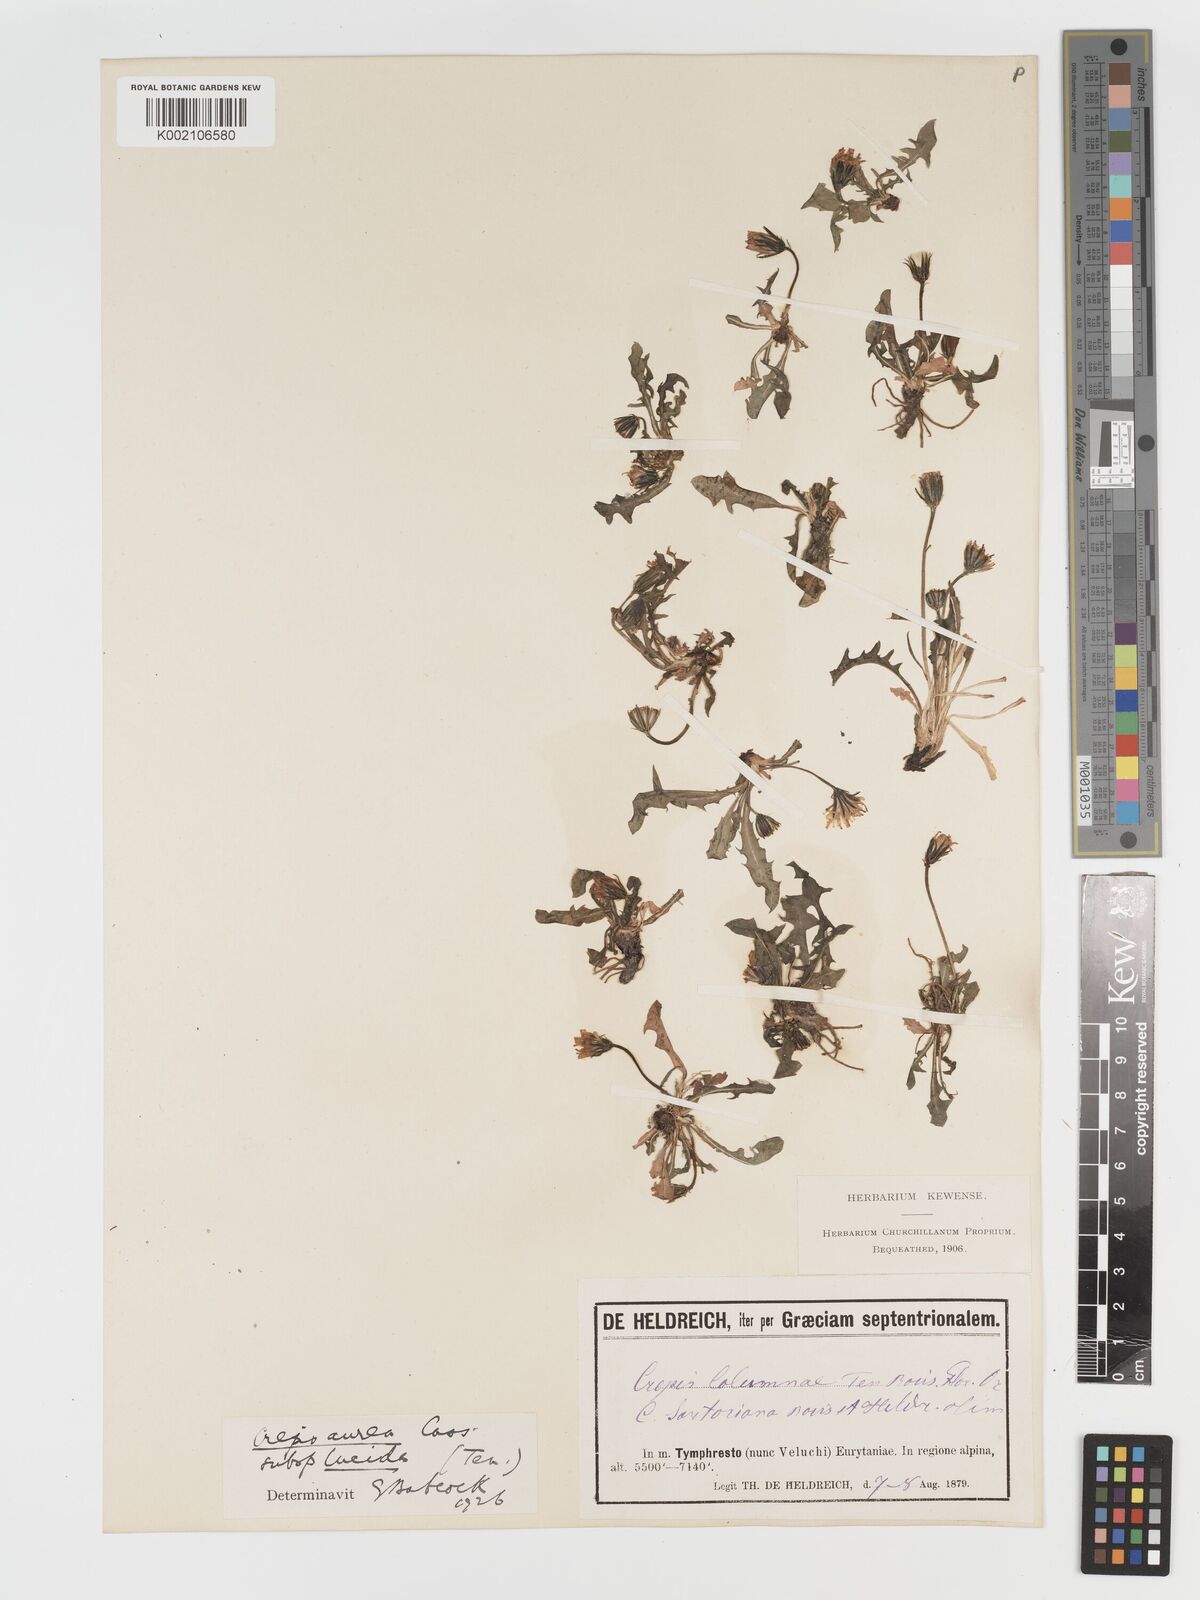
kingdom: Plantae
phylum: Tracheophyta
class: Magnoliopsida
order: Asterales
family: Asteraceae
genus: Crepis
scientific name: Crepis aurea
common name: Golden hawk's-beard
